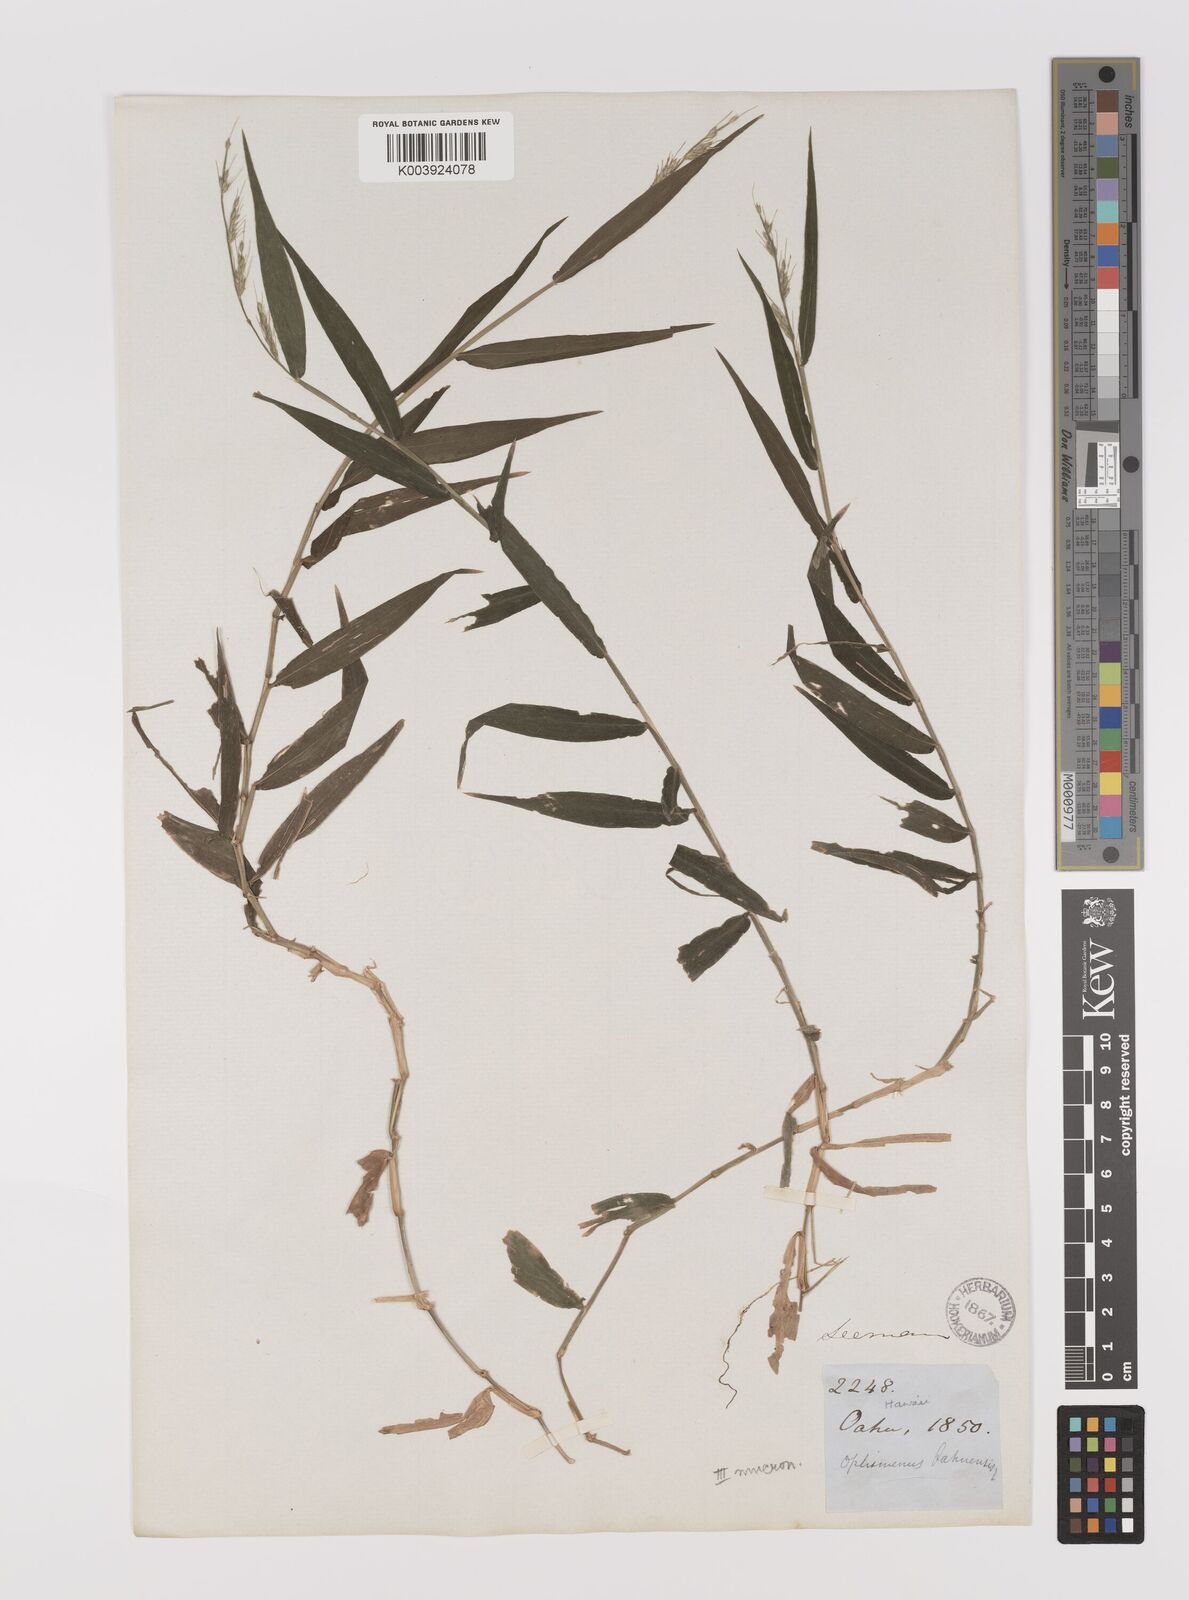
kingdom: Plantae
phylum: Tracheophyta
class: Liliopsida
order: Poales
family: Poaceae
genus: Oplismenus
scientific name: Oplismenus hirtellus
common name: Basketgrass
